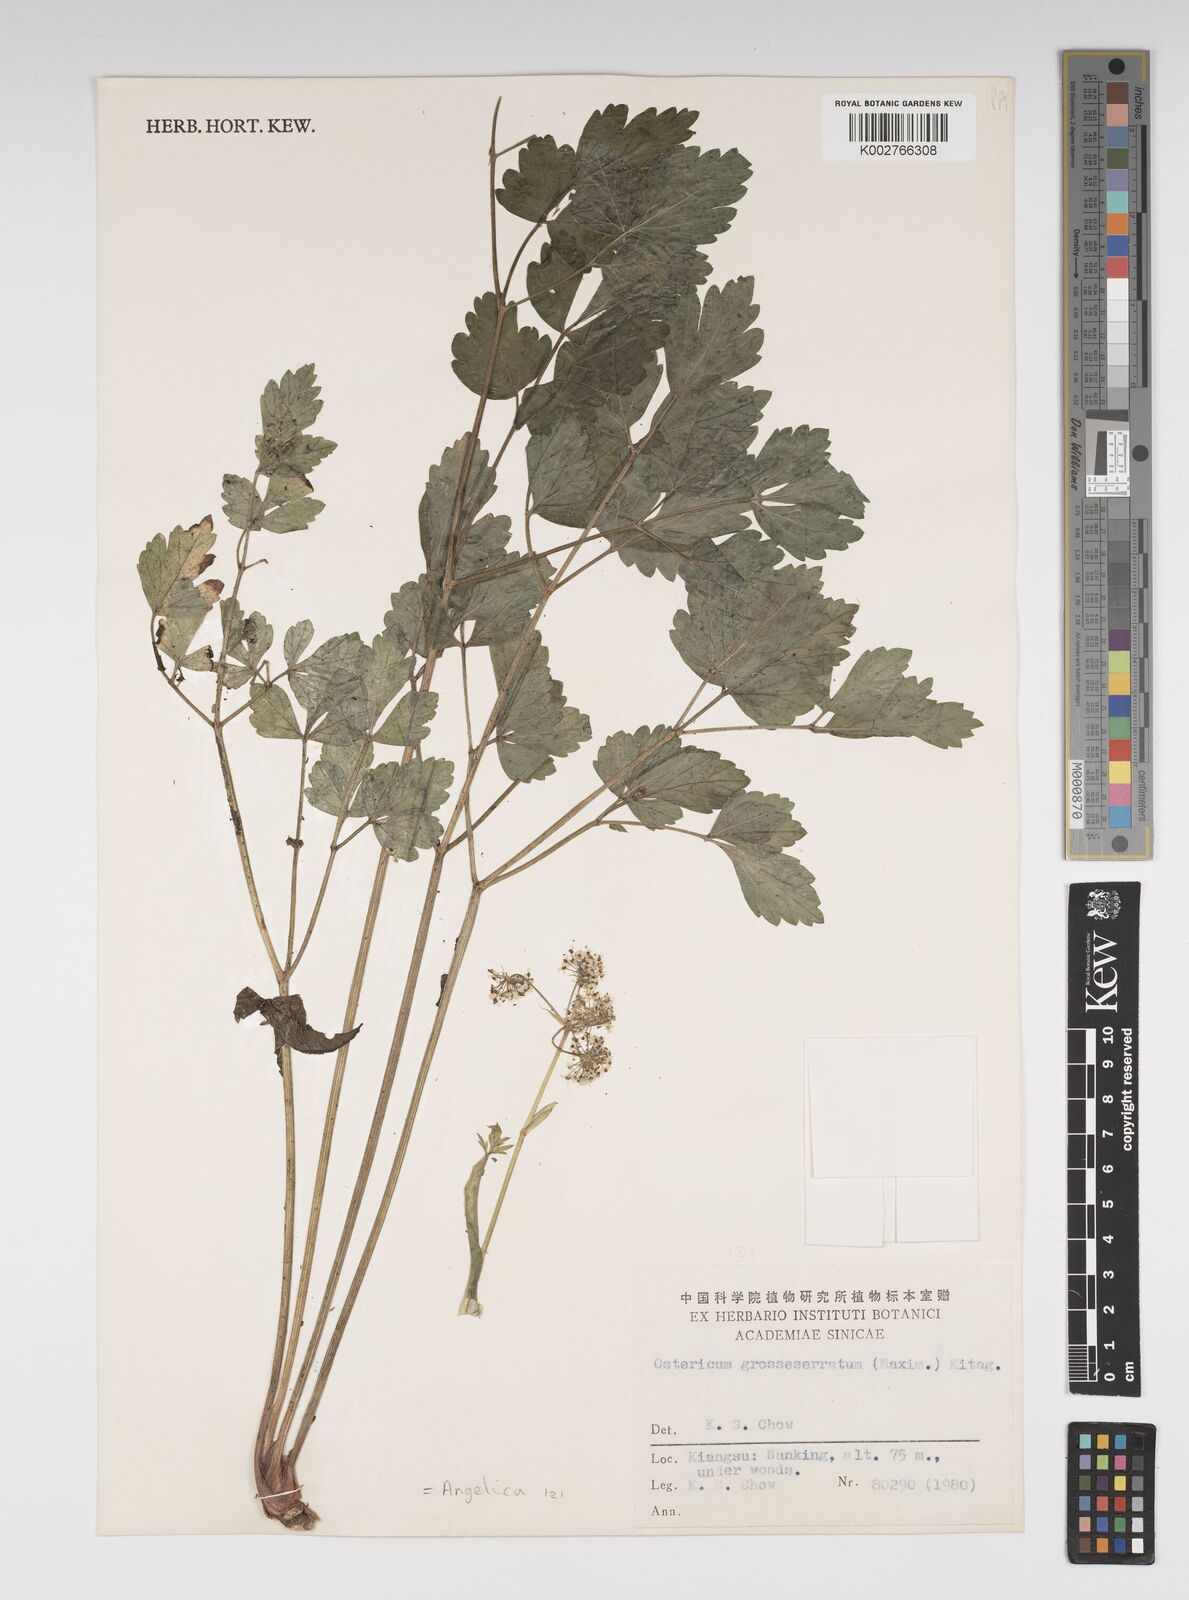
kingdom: Plantae
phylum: Tracheophyta
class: Magnoliopsida
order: Apiales
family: Apiaceae
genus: Ostericum
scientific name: Ostericum grosseserratum
